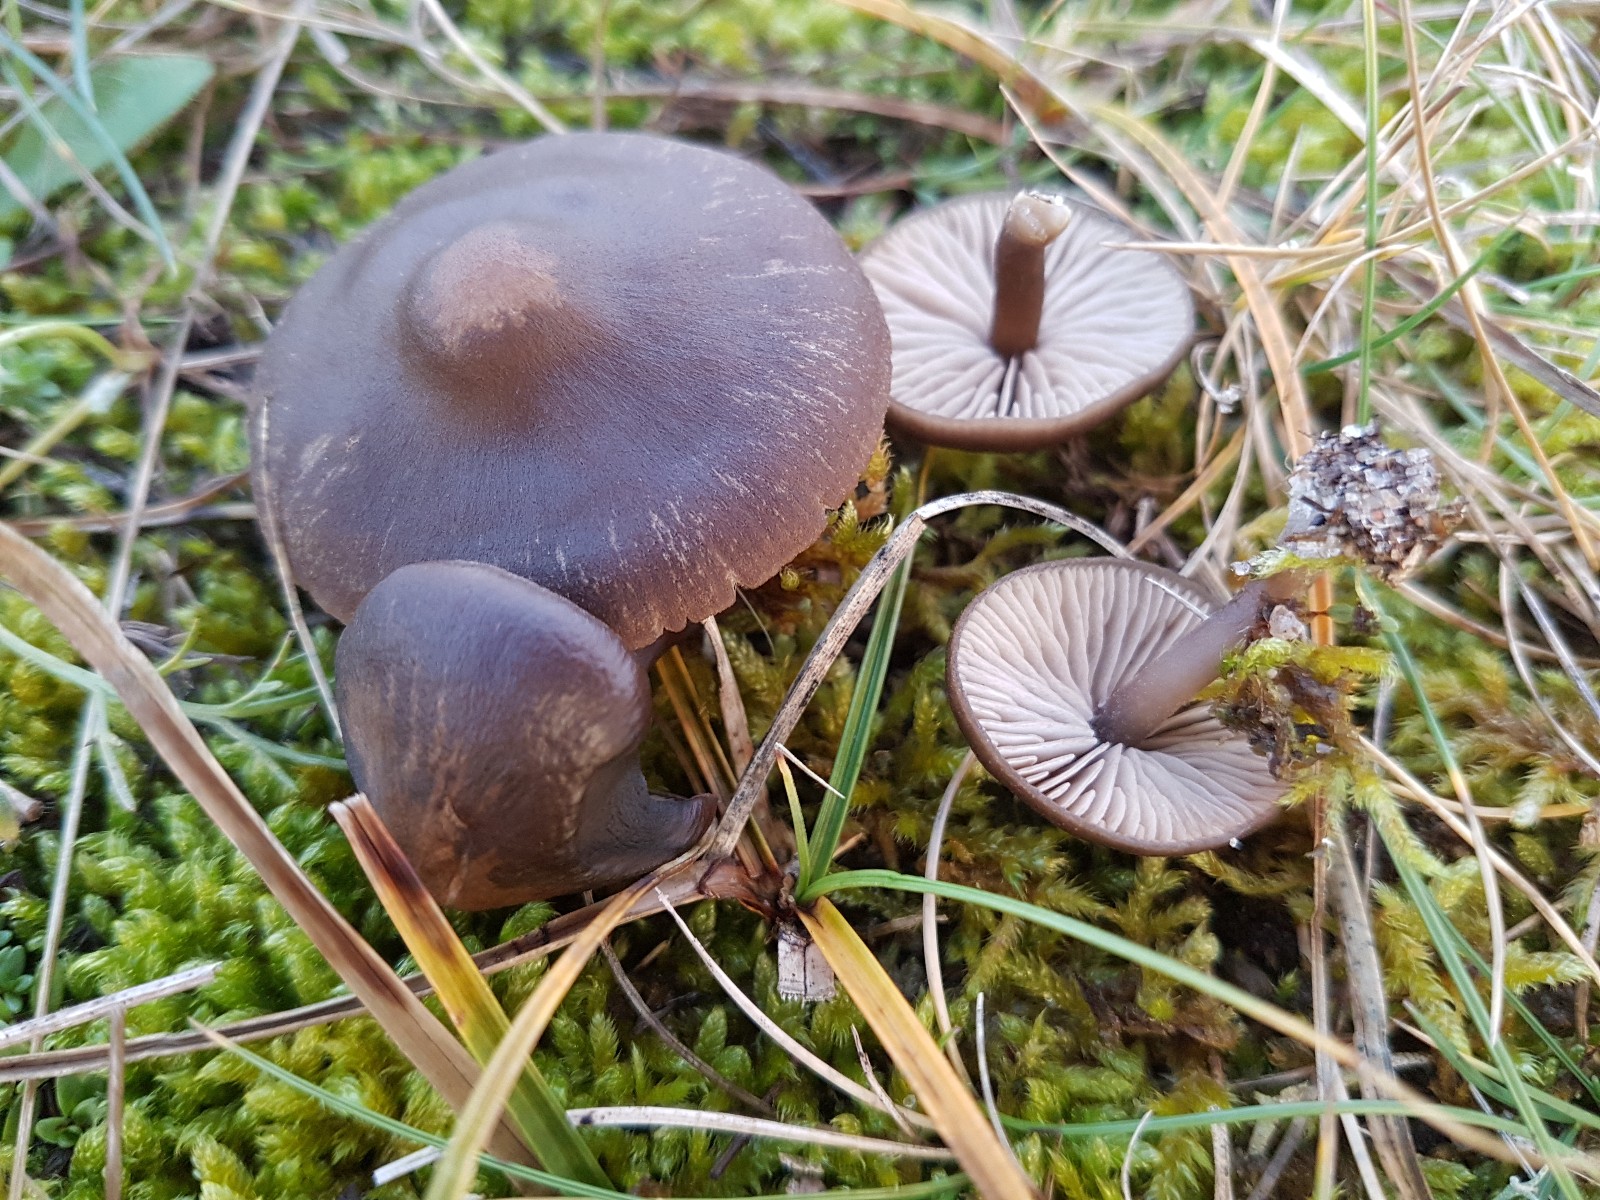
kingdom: Fungi
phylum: Basidiomycota
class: Agaricomycetes
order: Agaricales
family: Entolomataceae
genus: Entoloma
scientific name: Entoloma vindobonense
